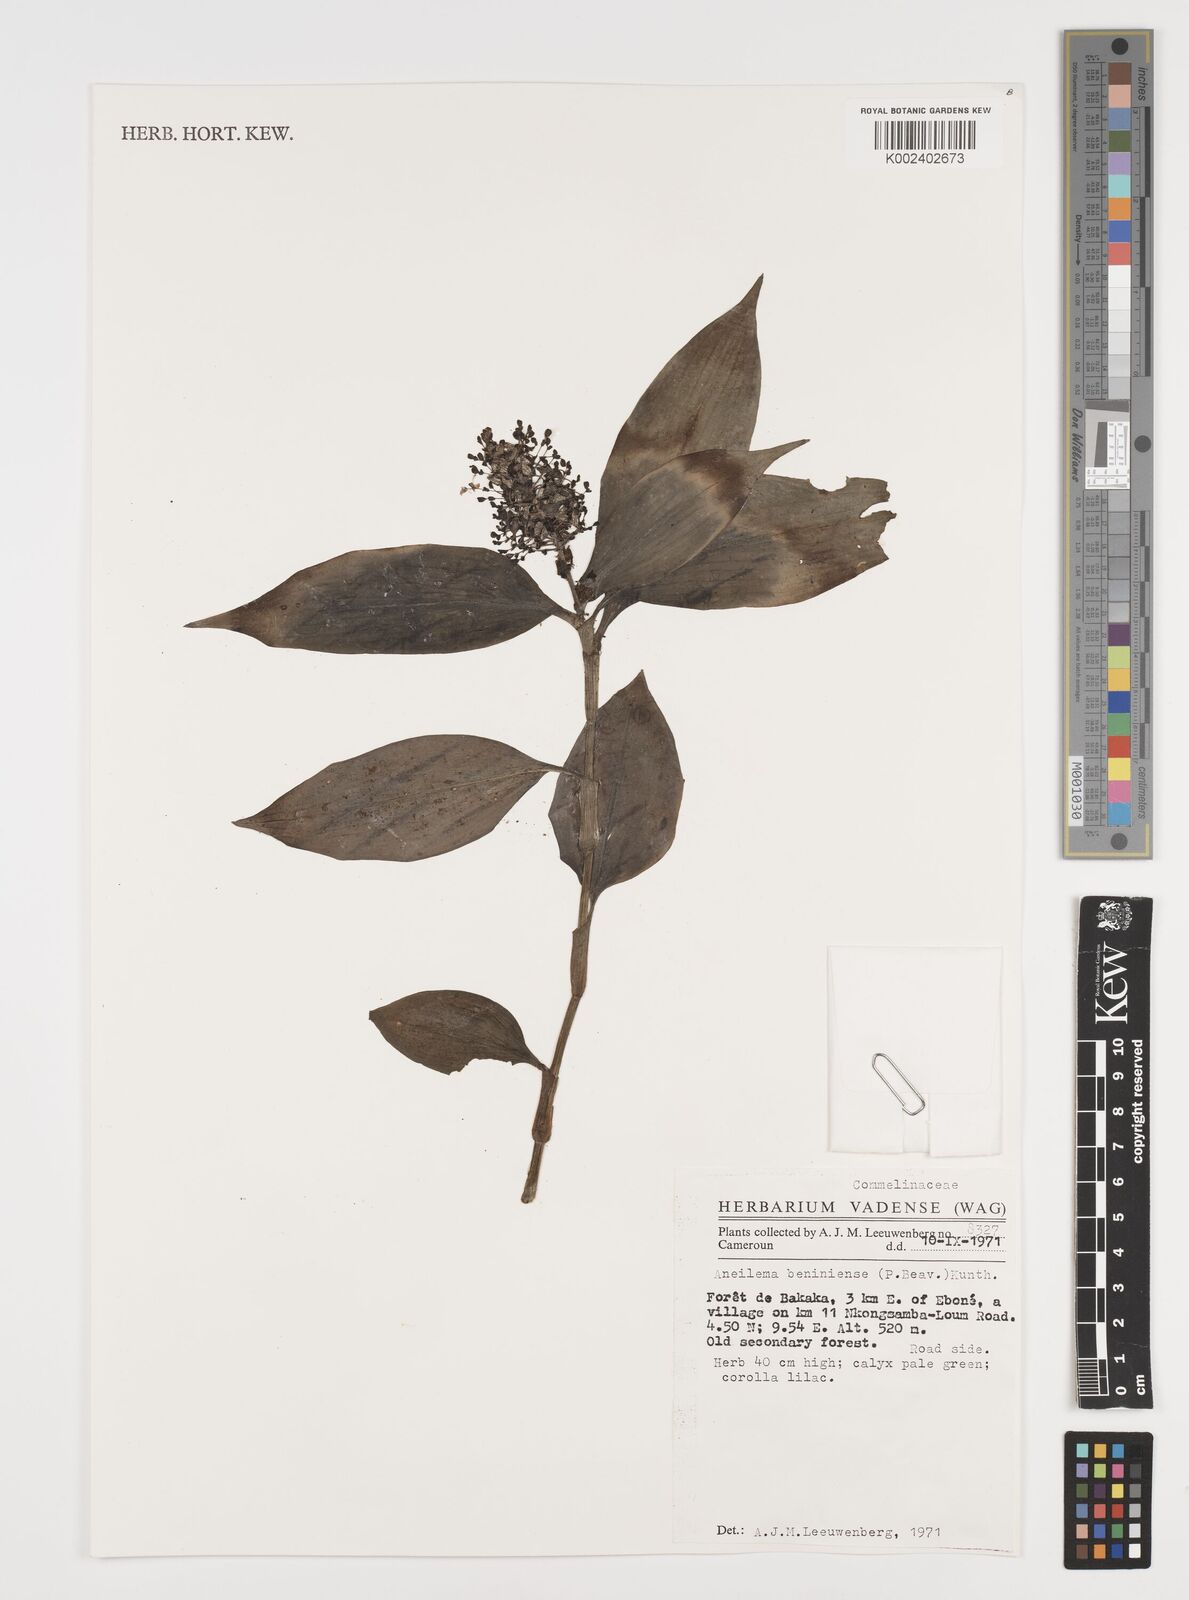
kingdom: Plantae
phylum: Tracheophyta
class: Liliopsida
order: Commelinales
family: Commelinaceae
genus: Aneilema
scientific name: Aneilema beniniense
